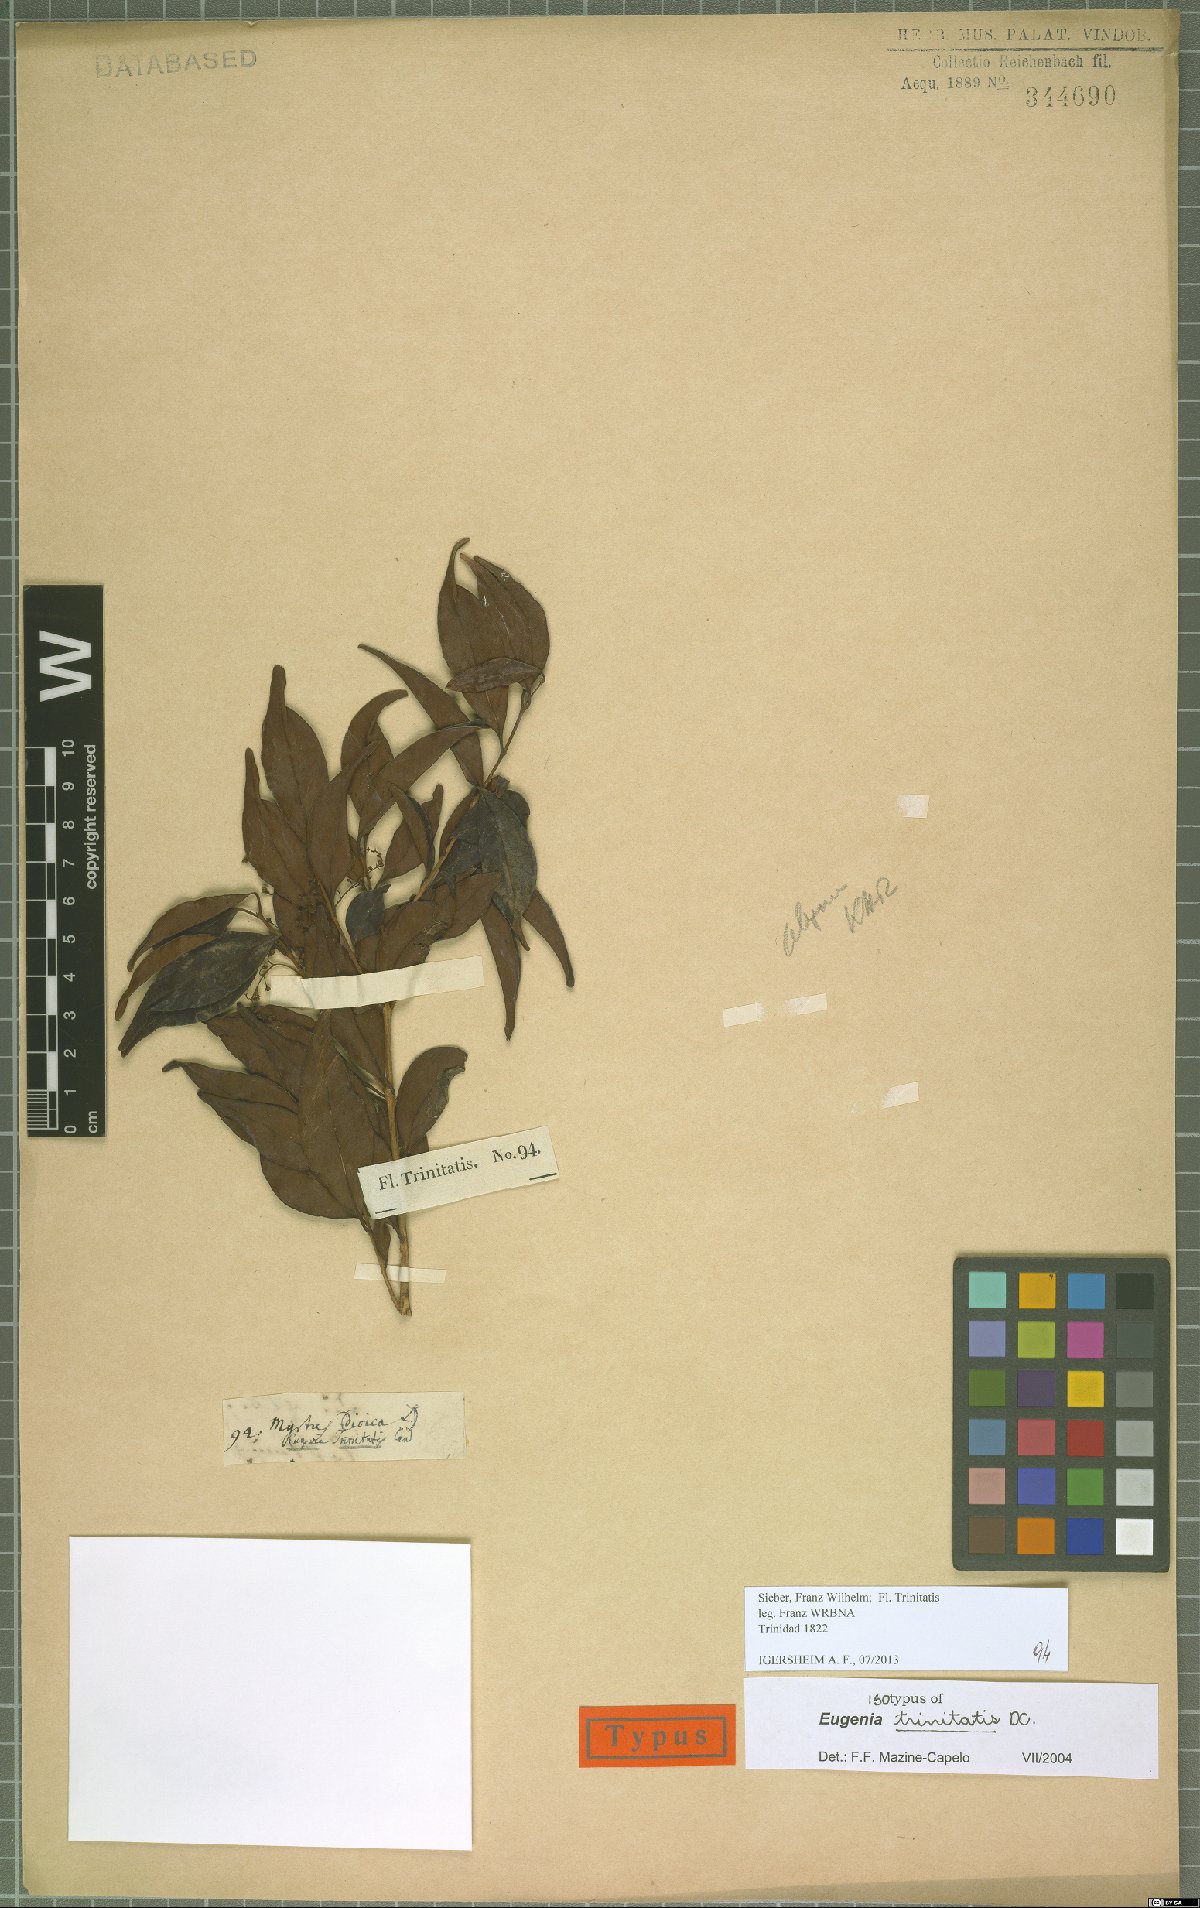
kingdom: Plantae
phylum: Tracheophyta
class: Magnoliopsida
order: Myrtales
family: Myrtaceae
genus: Eugenia
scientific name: Eugenia trinitatis
